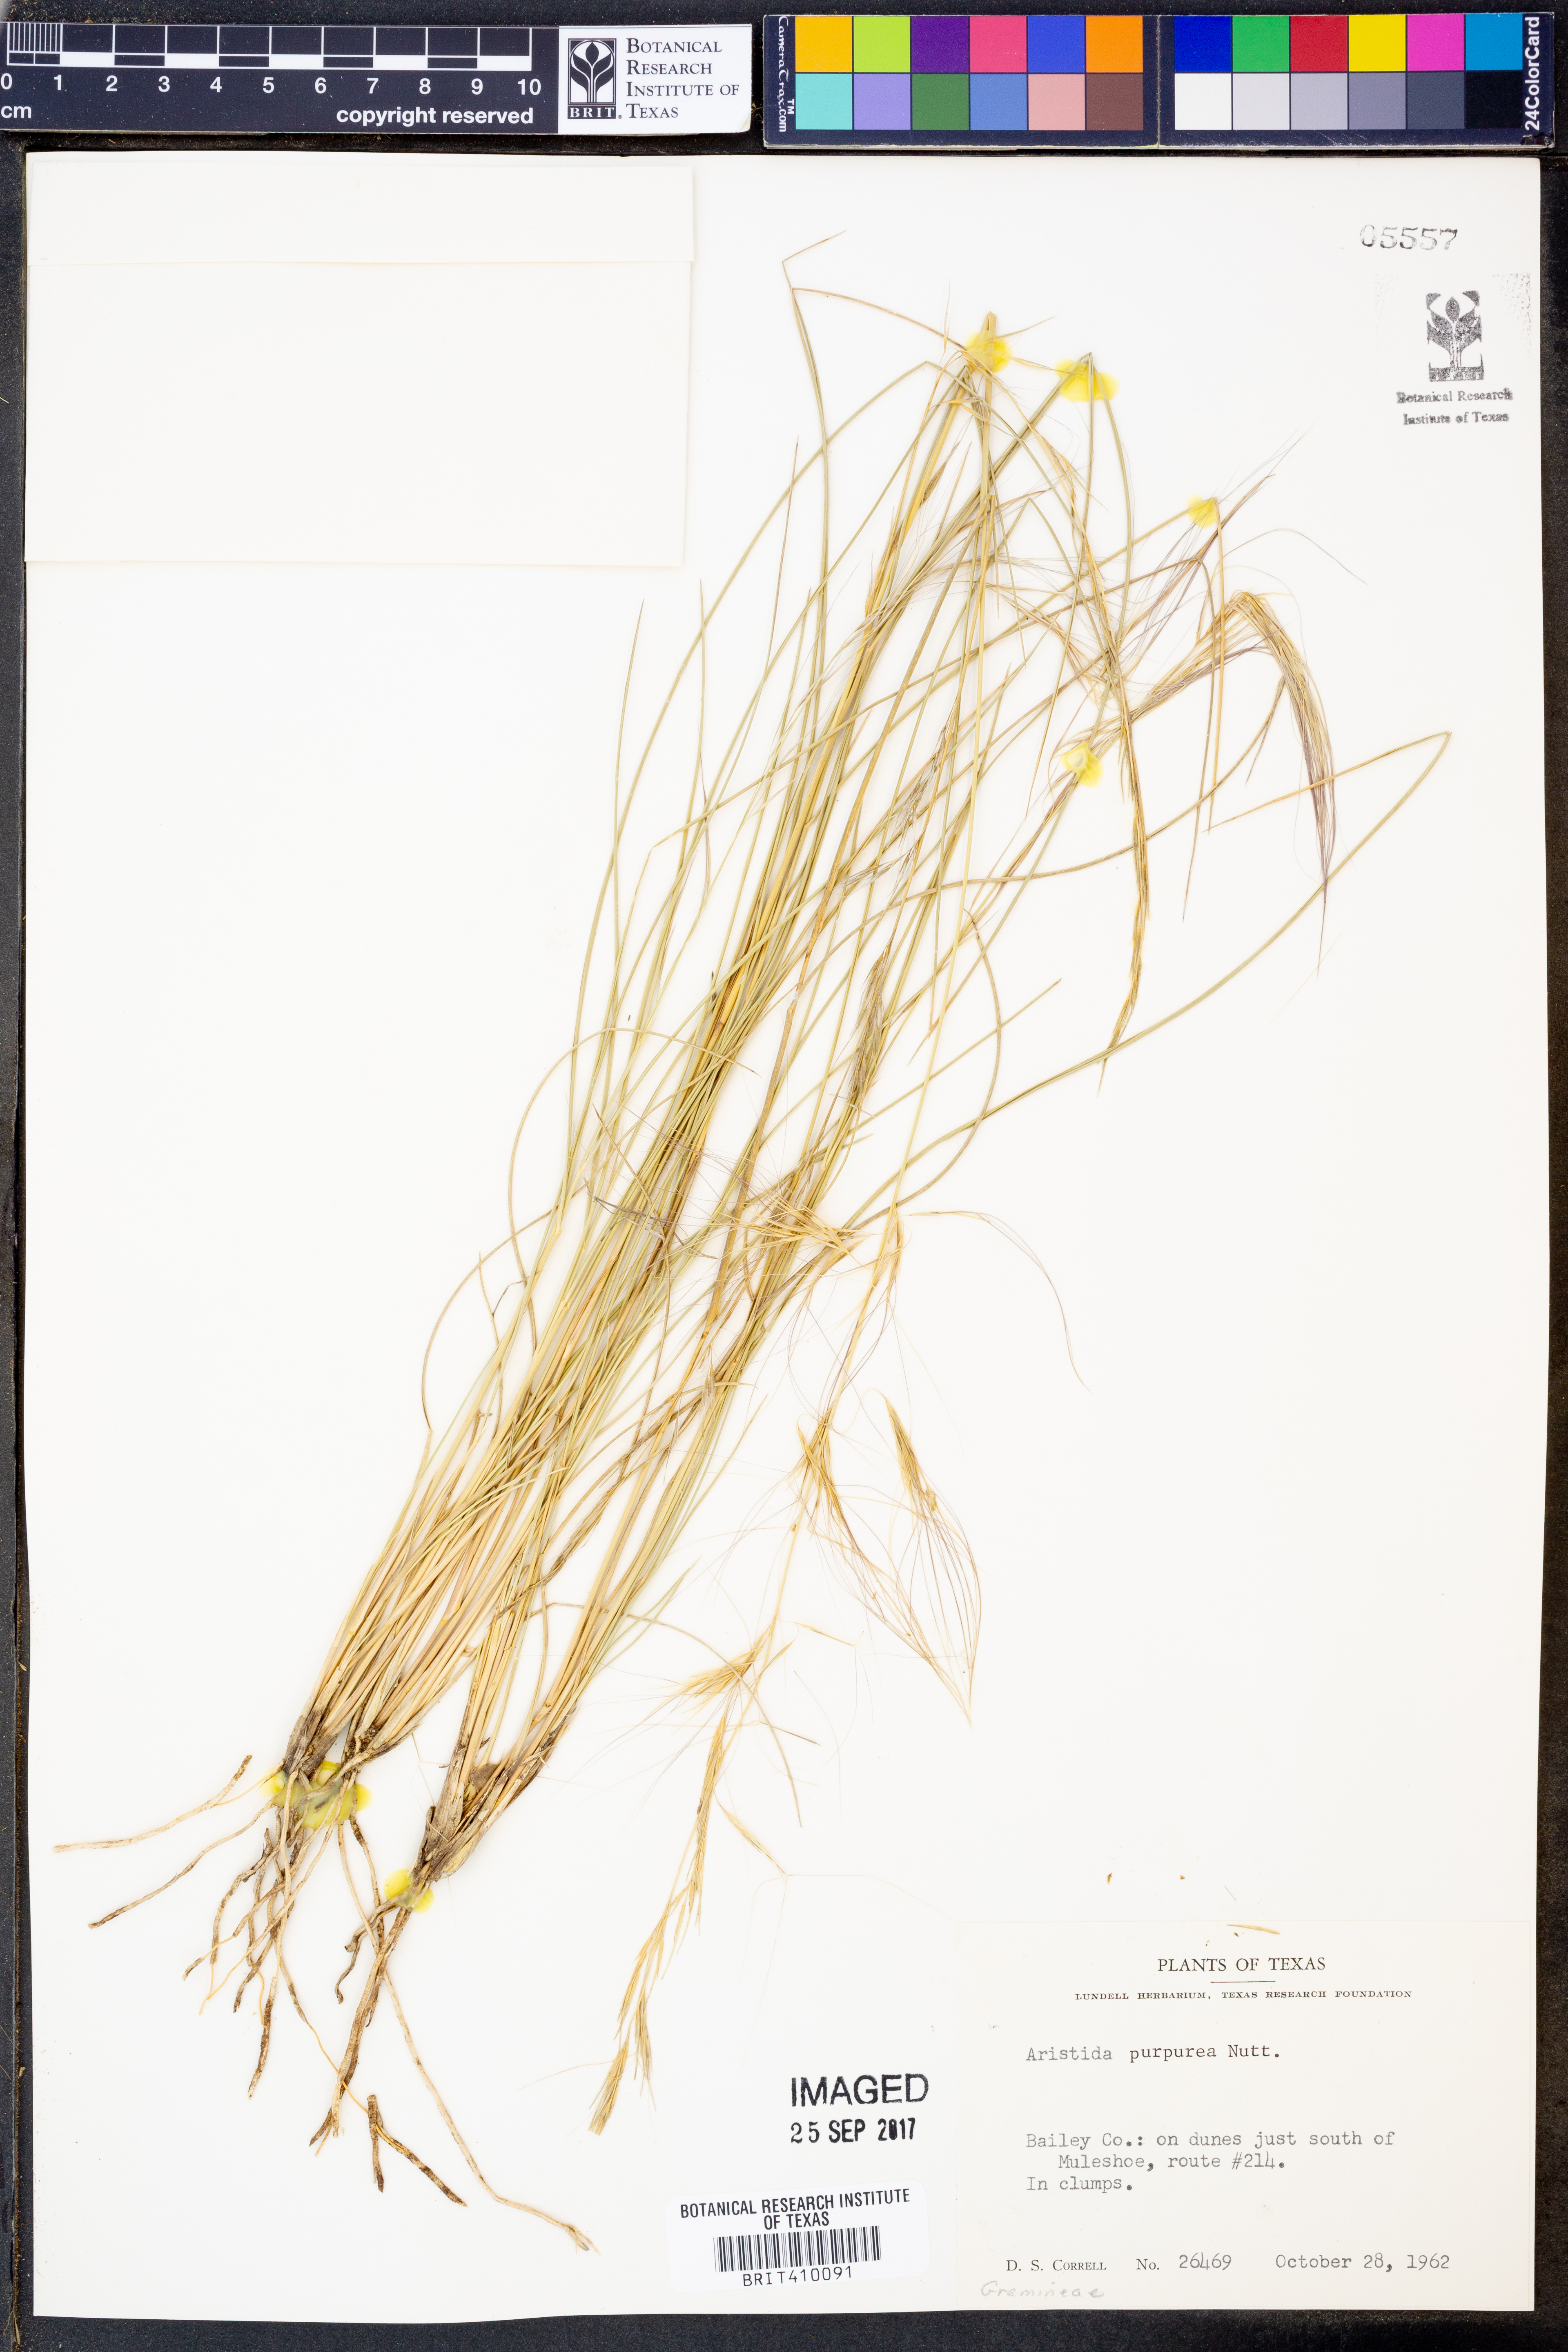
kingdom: Plantae
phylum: Tracheophyta
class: Liliopsida
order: Poales
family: Poaceae
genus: Aristida
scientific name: Aristida purpurea
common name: Purple threeawn
